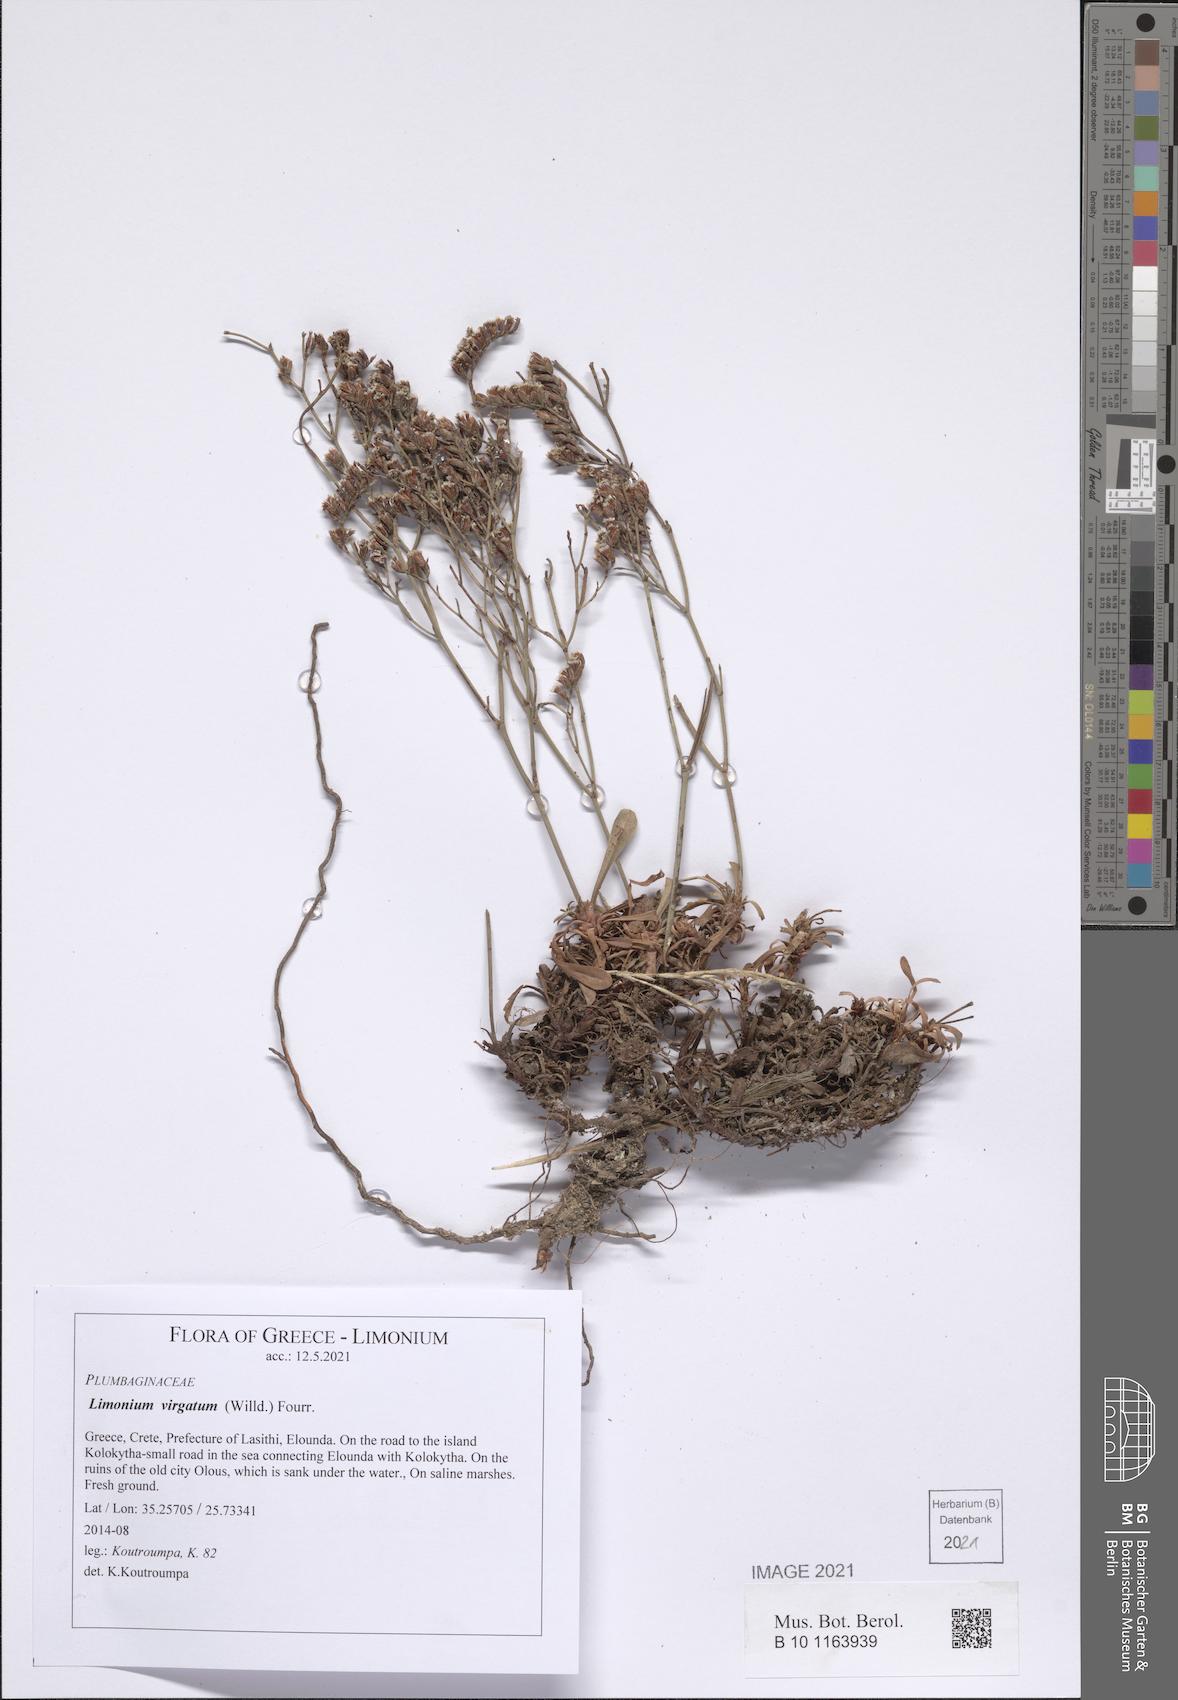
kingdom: Plantae
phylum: Tracheophyta
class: Magnoliopsida
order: Caryophyllales
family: Plumbaginaceae
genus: Limonium
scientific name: Limonium virgatum
